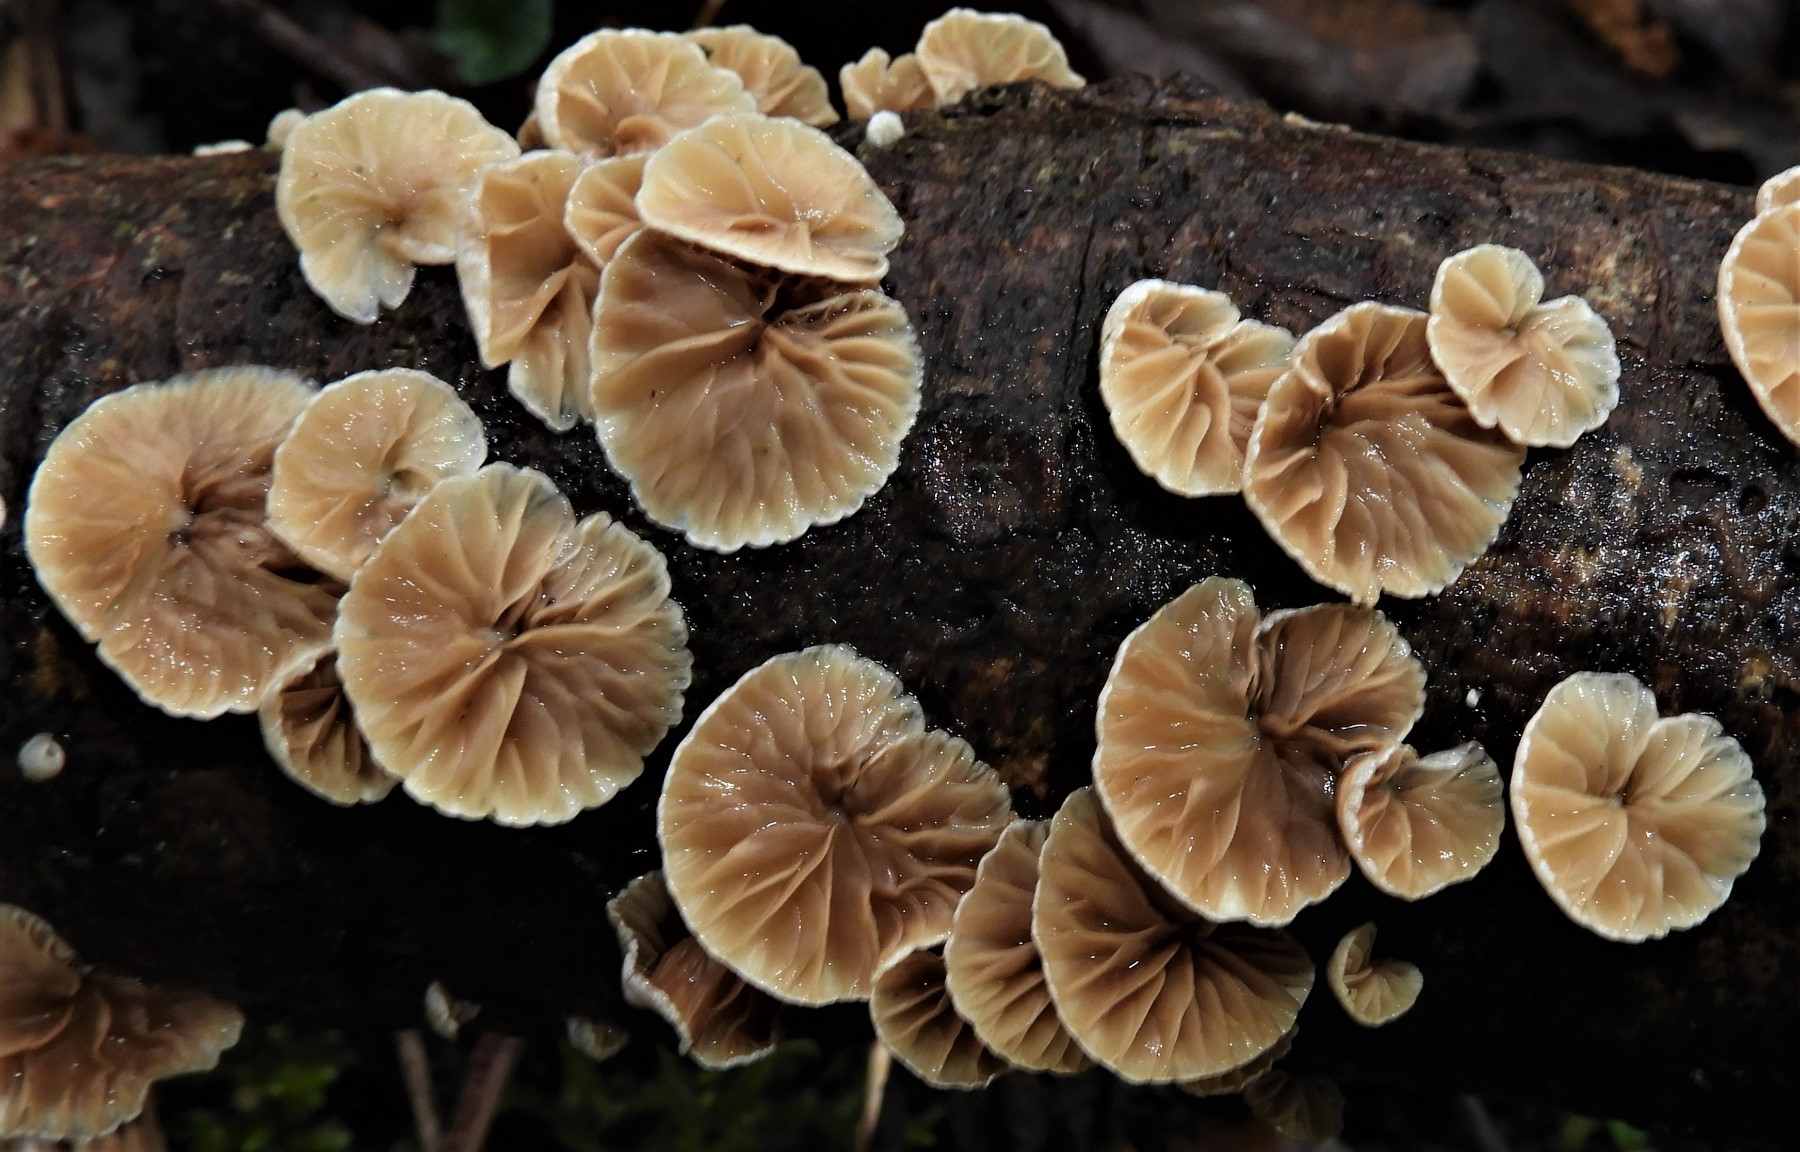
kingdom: Fungi
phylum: Basidiomycota
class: Agaricomycetes
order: Agaricales
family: Crepidotaceae
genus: Crepidotus
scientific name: Crepidotus
